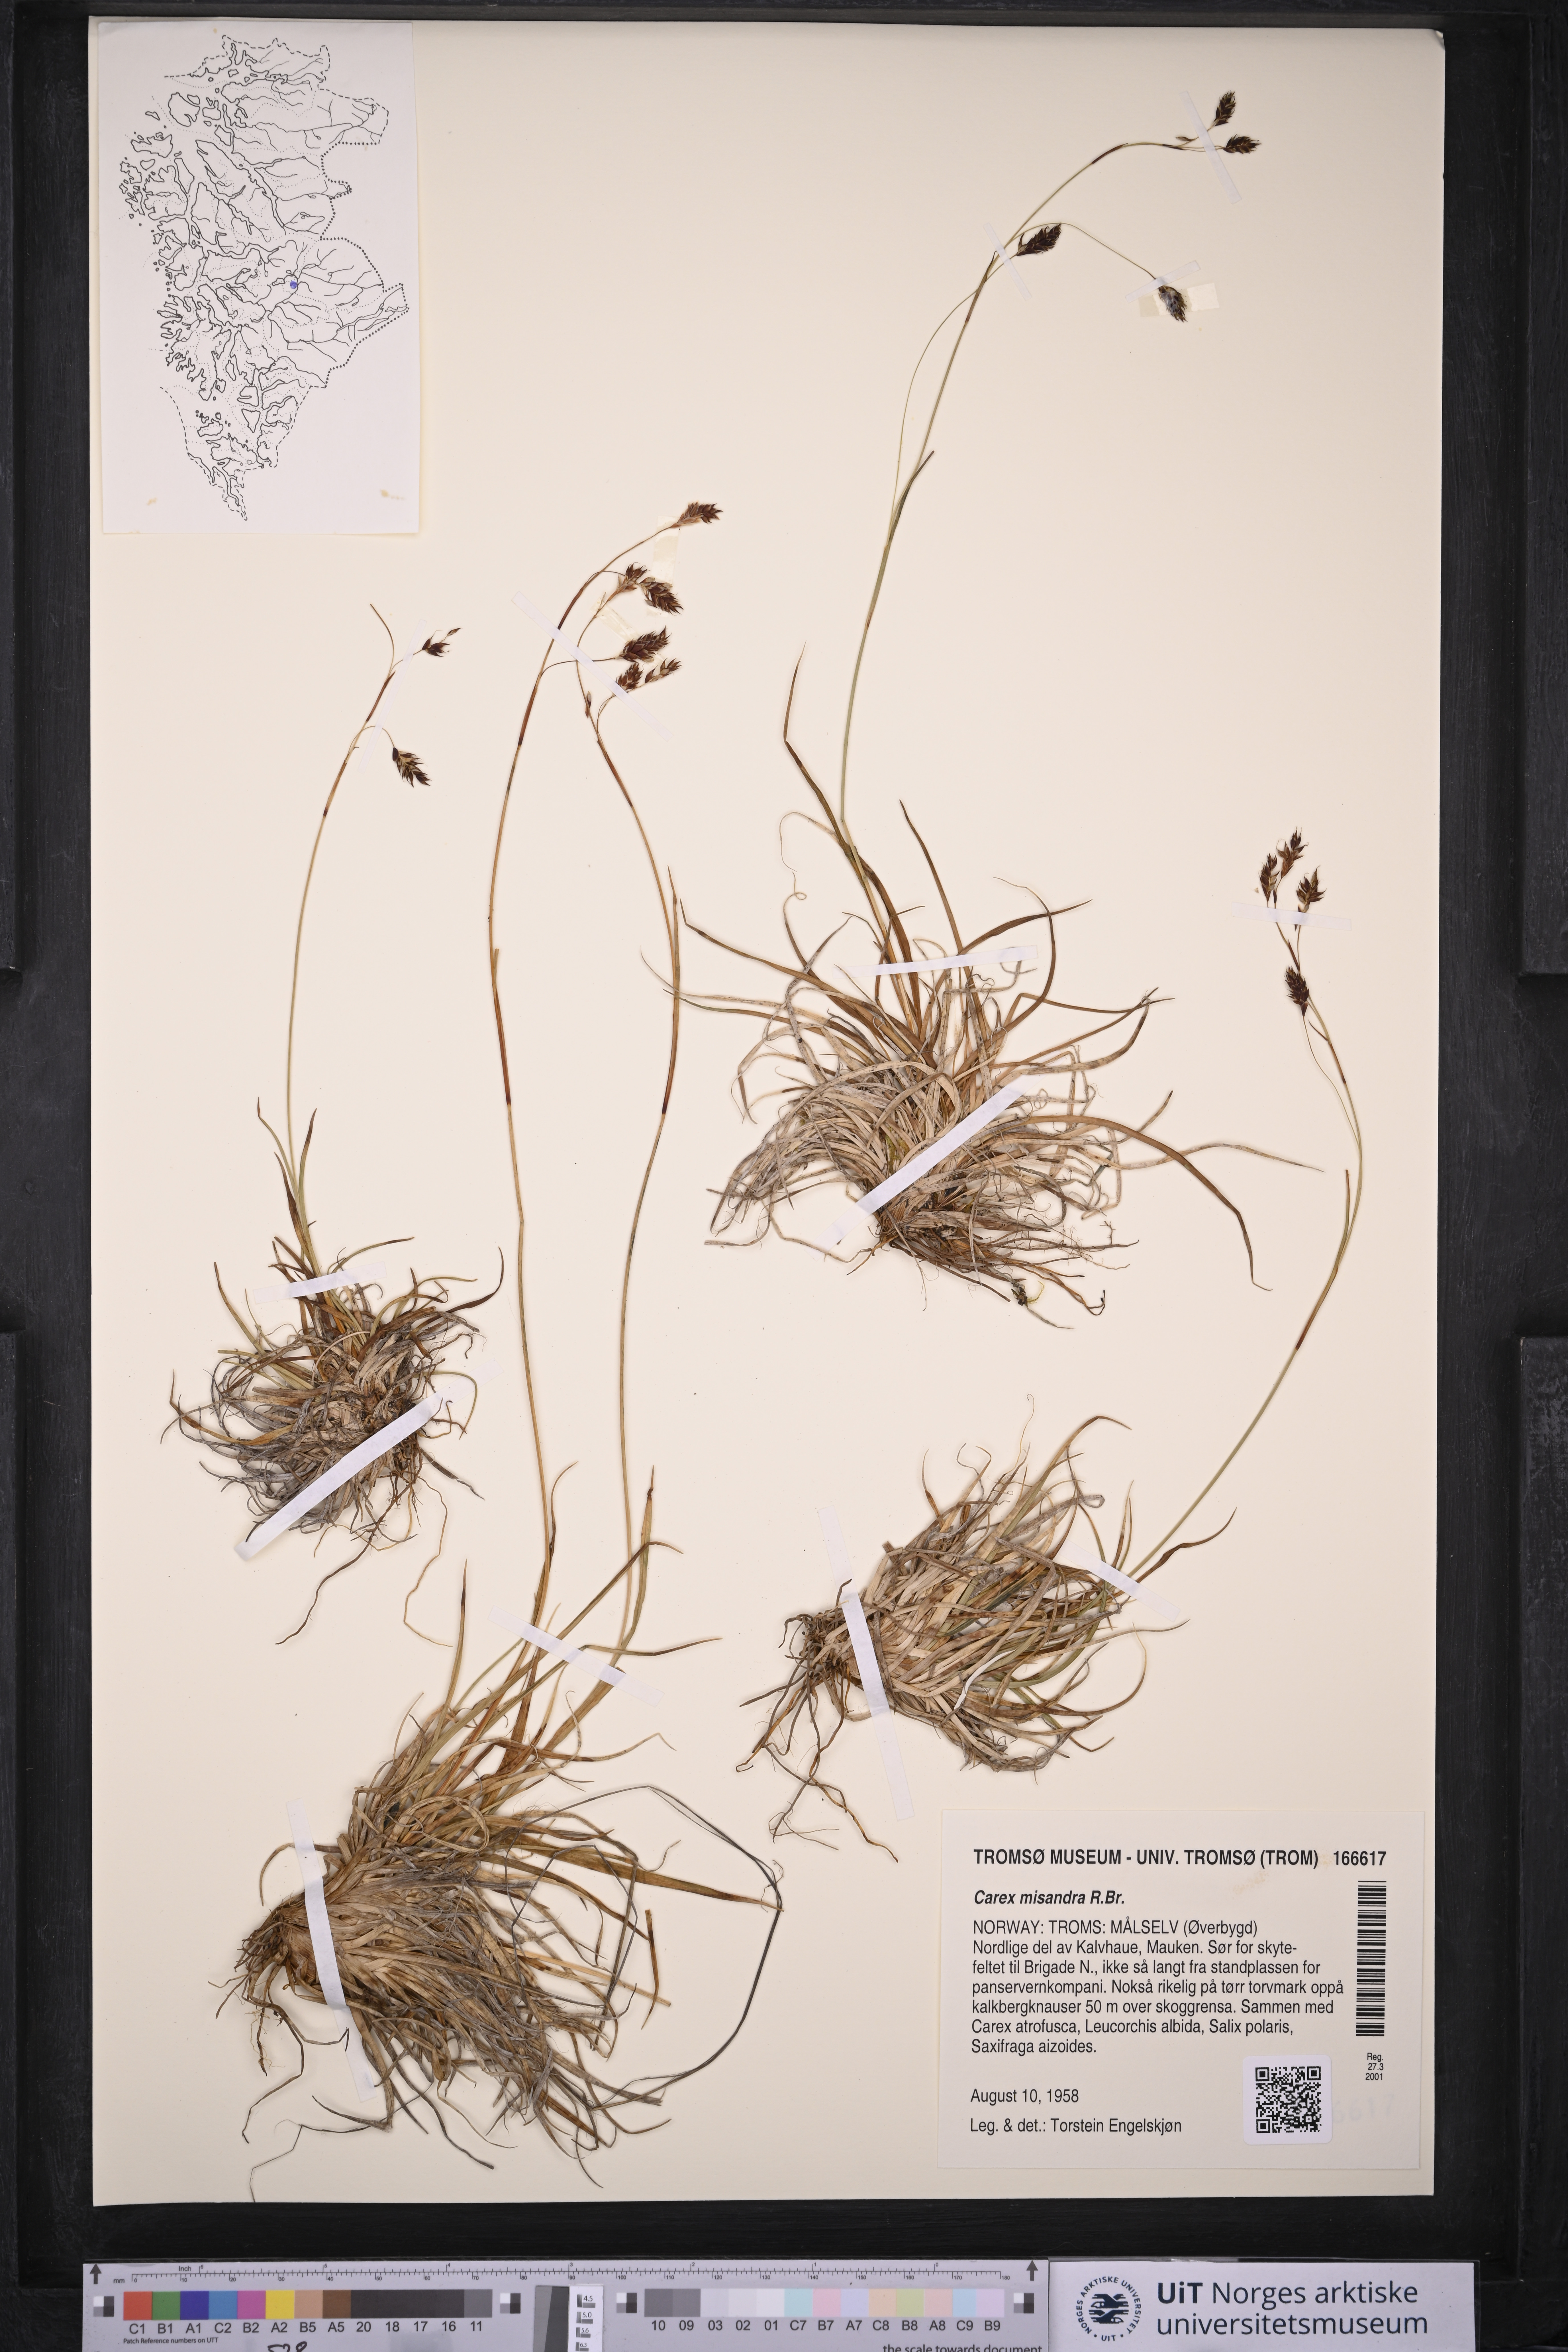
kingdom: Plantae
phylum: Tracheophyta
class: Liliopsida
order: Poales
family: Cyperaceae
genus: Carex
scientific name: Carex fuliginosa
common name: Few-flowered sedge
